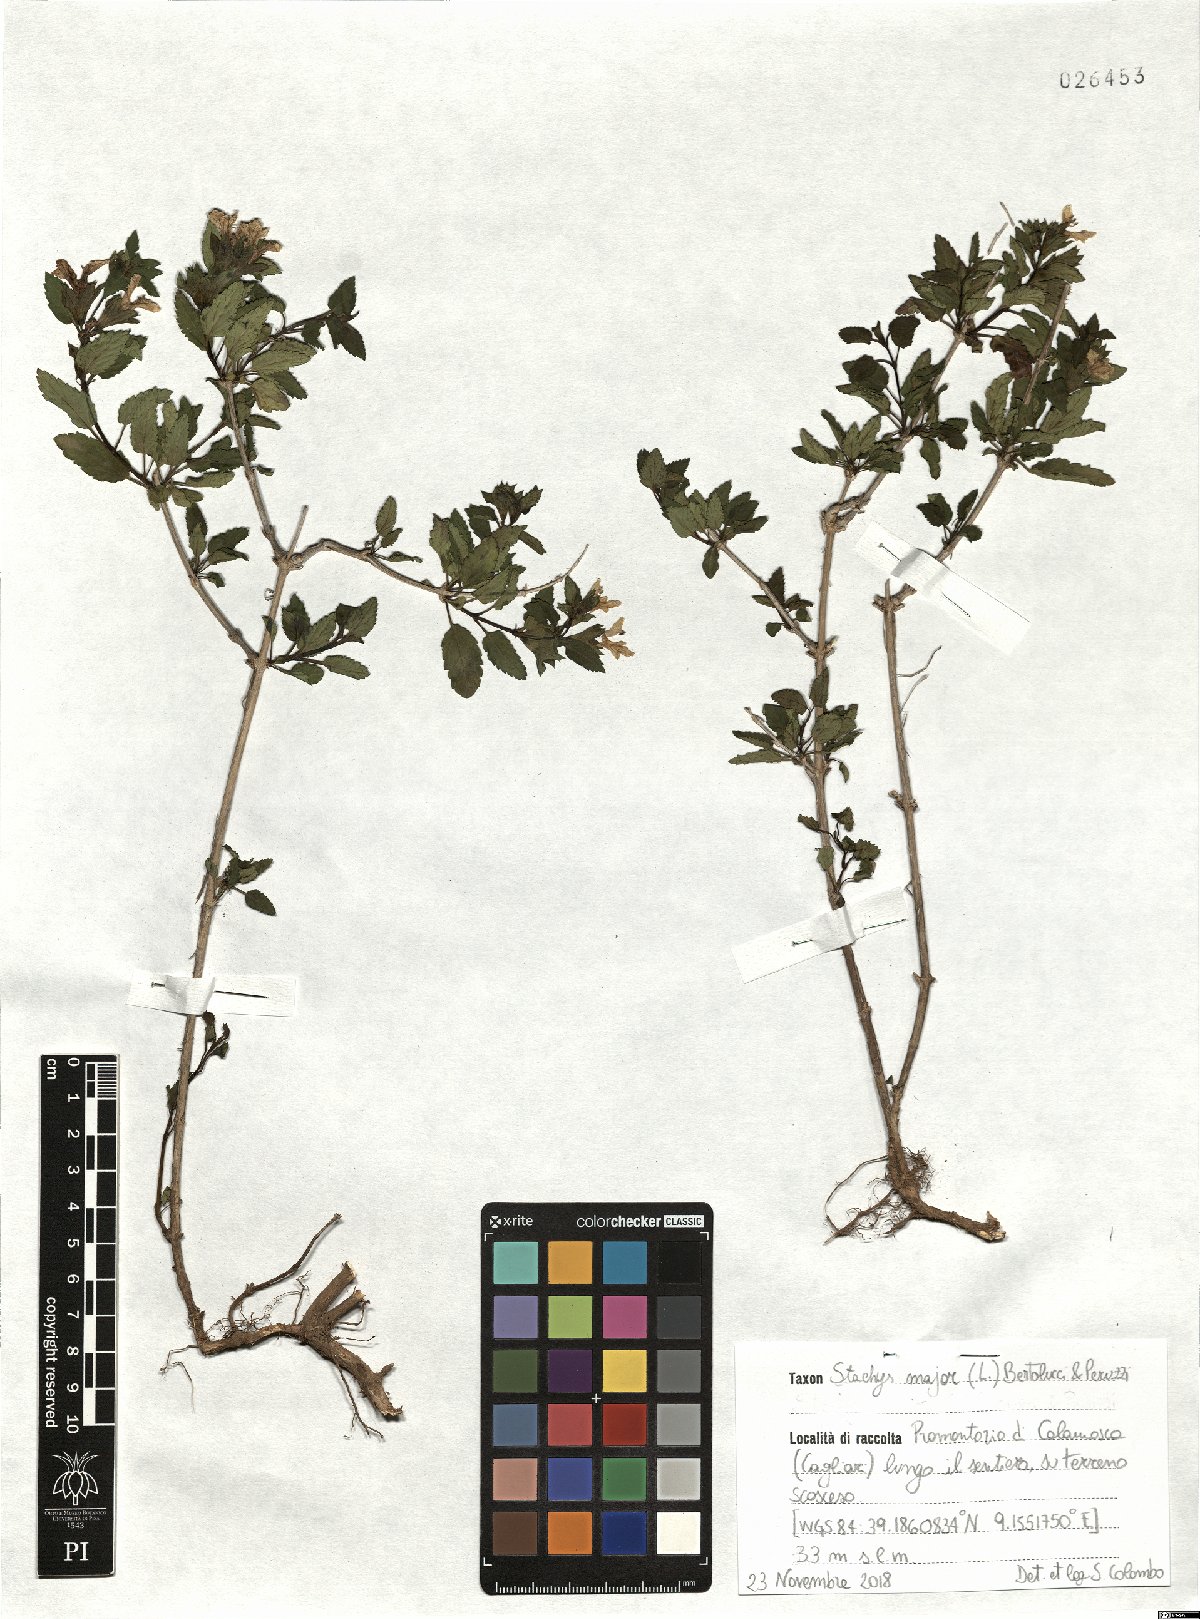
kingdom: Plantae
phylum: Tracheophyta
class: Magnoliopsida
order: Lamiales
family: Lamiaceae
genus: Prasium
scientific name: Prasium majus
